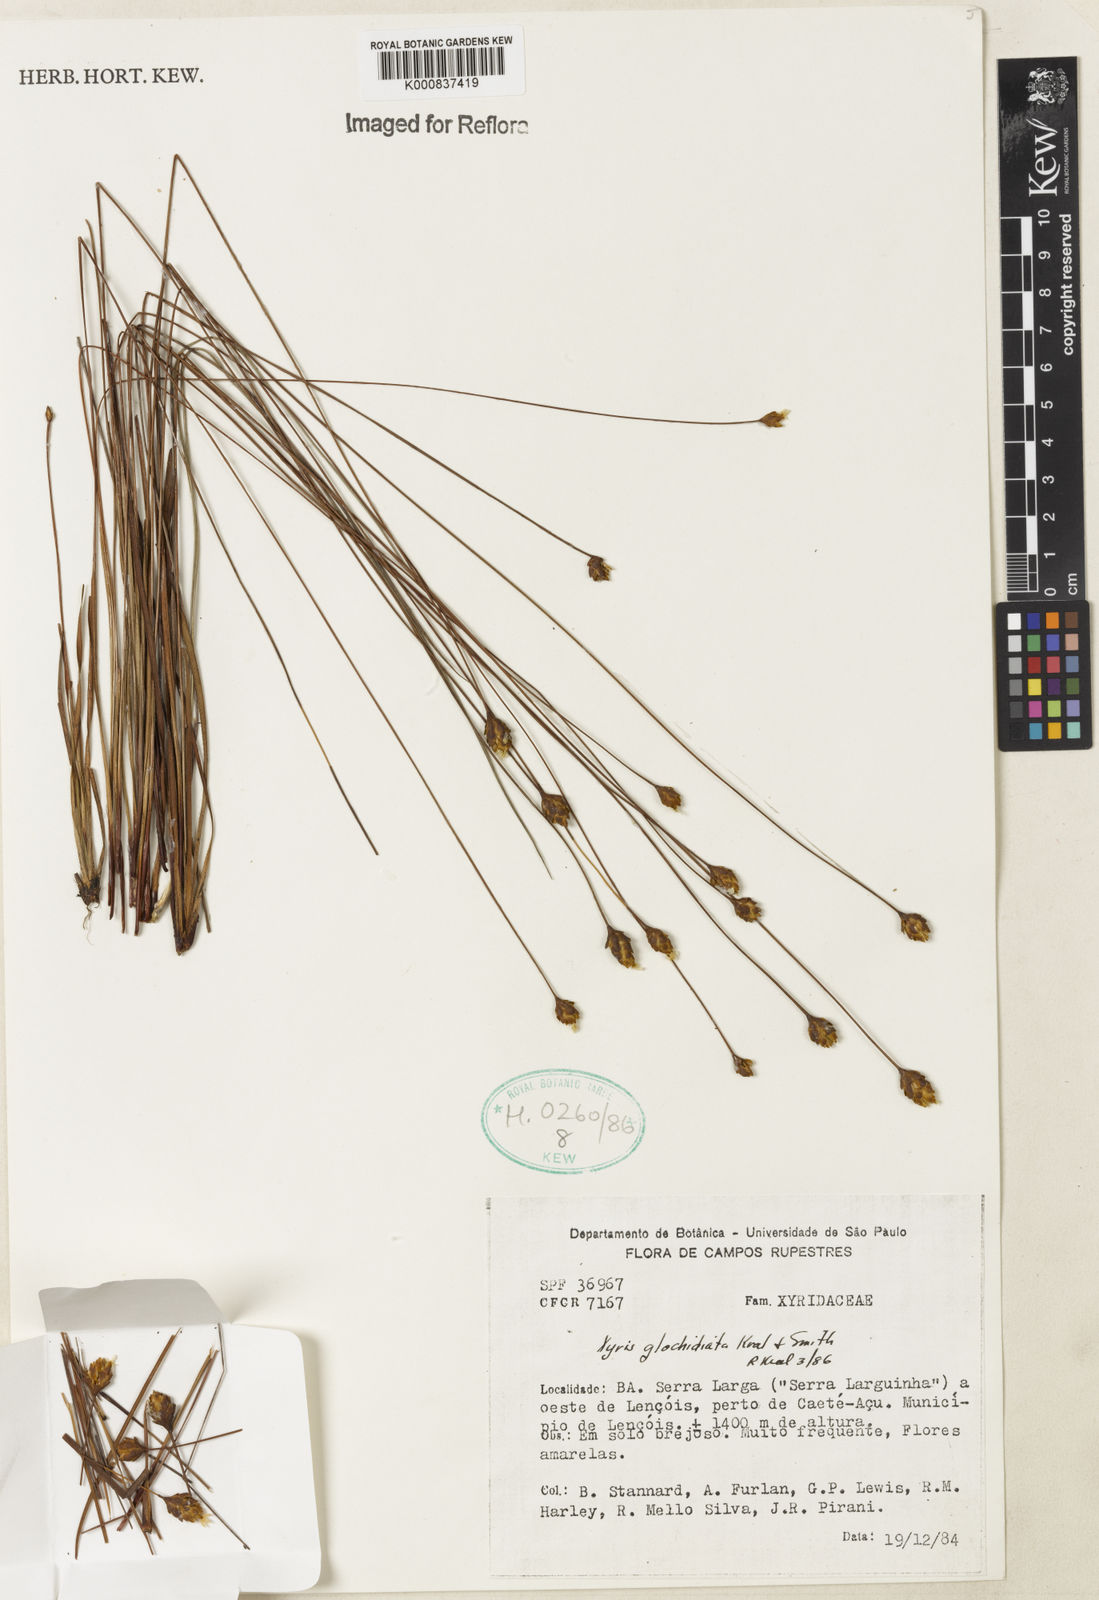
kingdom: Plantae
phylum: Tracheophyta
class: Liliopsida
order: Poales
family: Xyridaceae
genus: Xyris
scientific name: Xyris glochidiata
